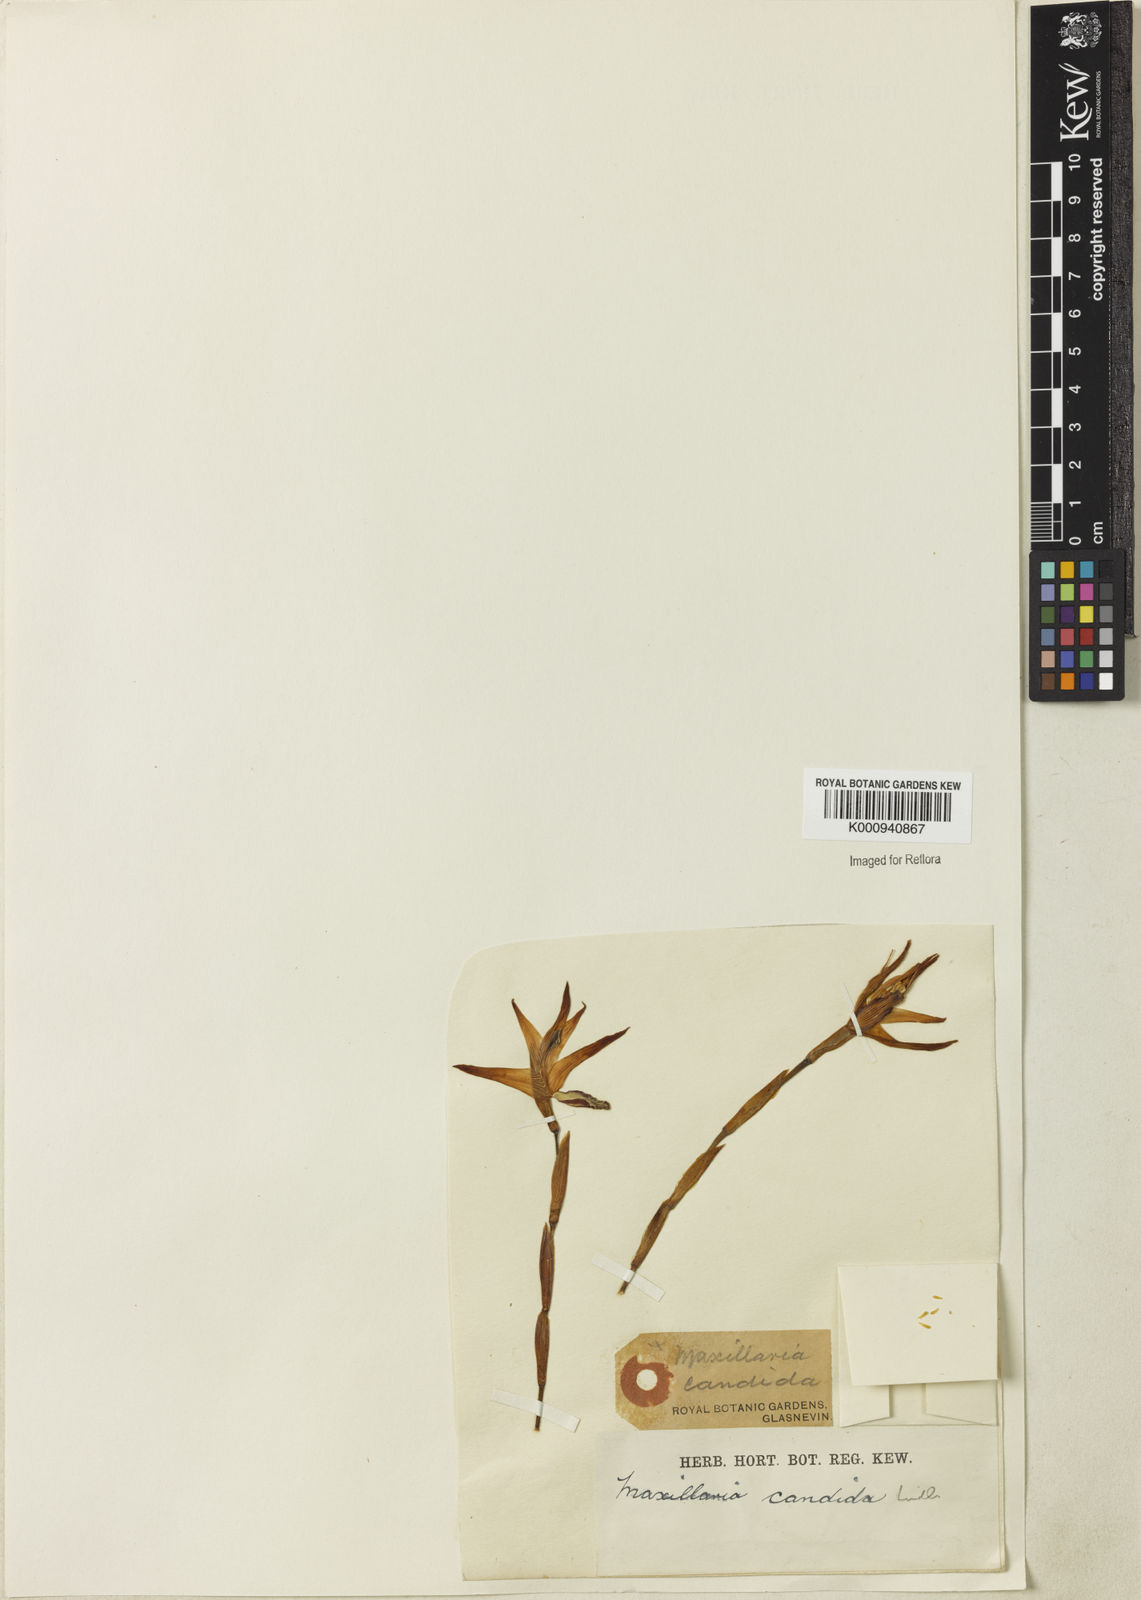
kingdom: Plantae
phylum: Tracheophyta
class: Liliopsida
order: Asparagales
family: Orchidaceae
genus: Maxillaria
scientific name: Maxillaria candida
